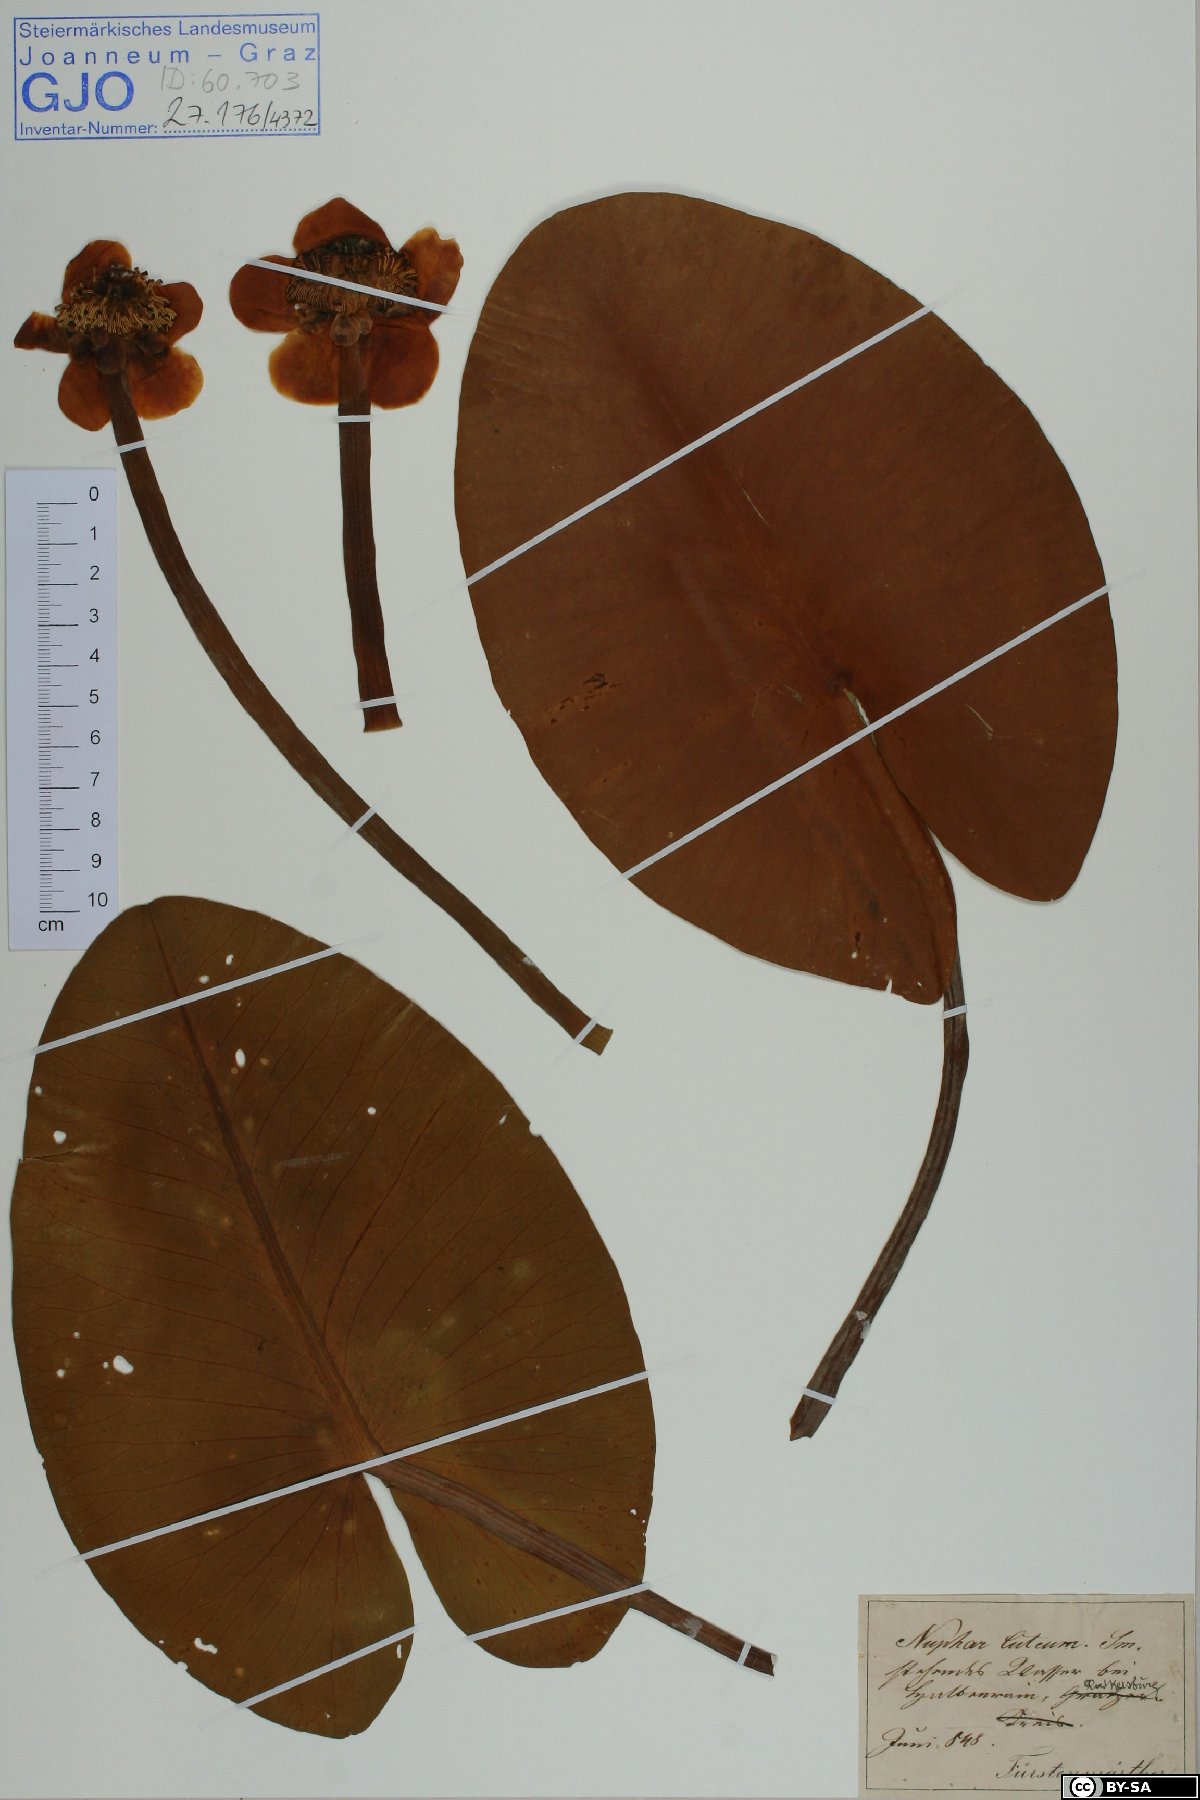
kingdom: Plantae
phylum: Tracheophyta
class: Magnoliopsida
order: Nymphaeales
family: Nymphaeaceae
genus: Nuphar
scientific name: Nuphar lutea
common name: Yellow water-lily
